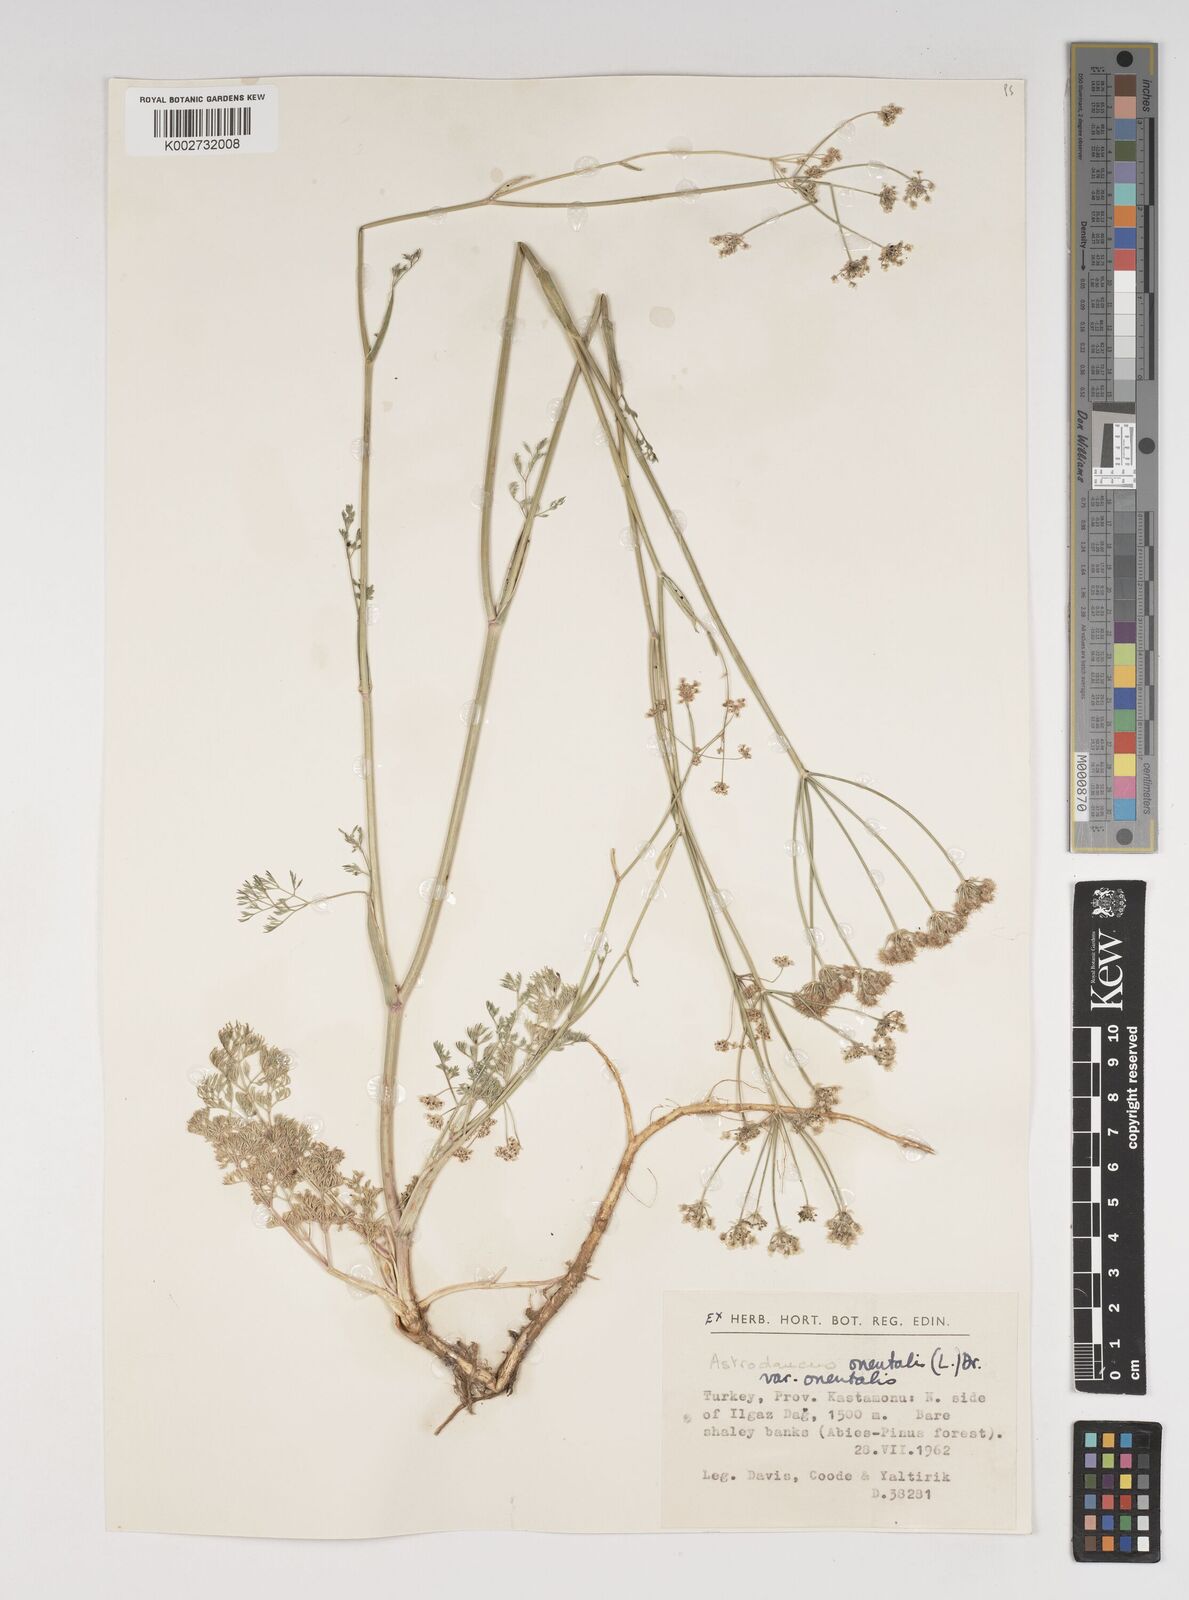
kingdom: Plantae
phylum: Tracheophyta
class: Magnoliopsida
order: Apiales
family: Apiaceae
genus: Astrodaucus
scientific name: Astrodaucus
